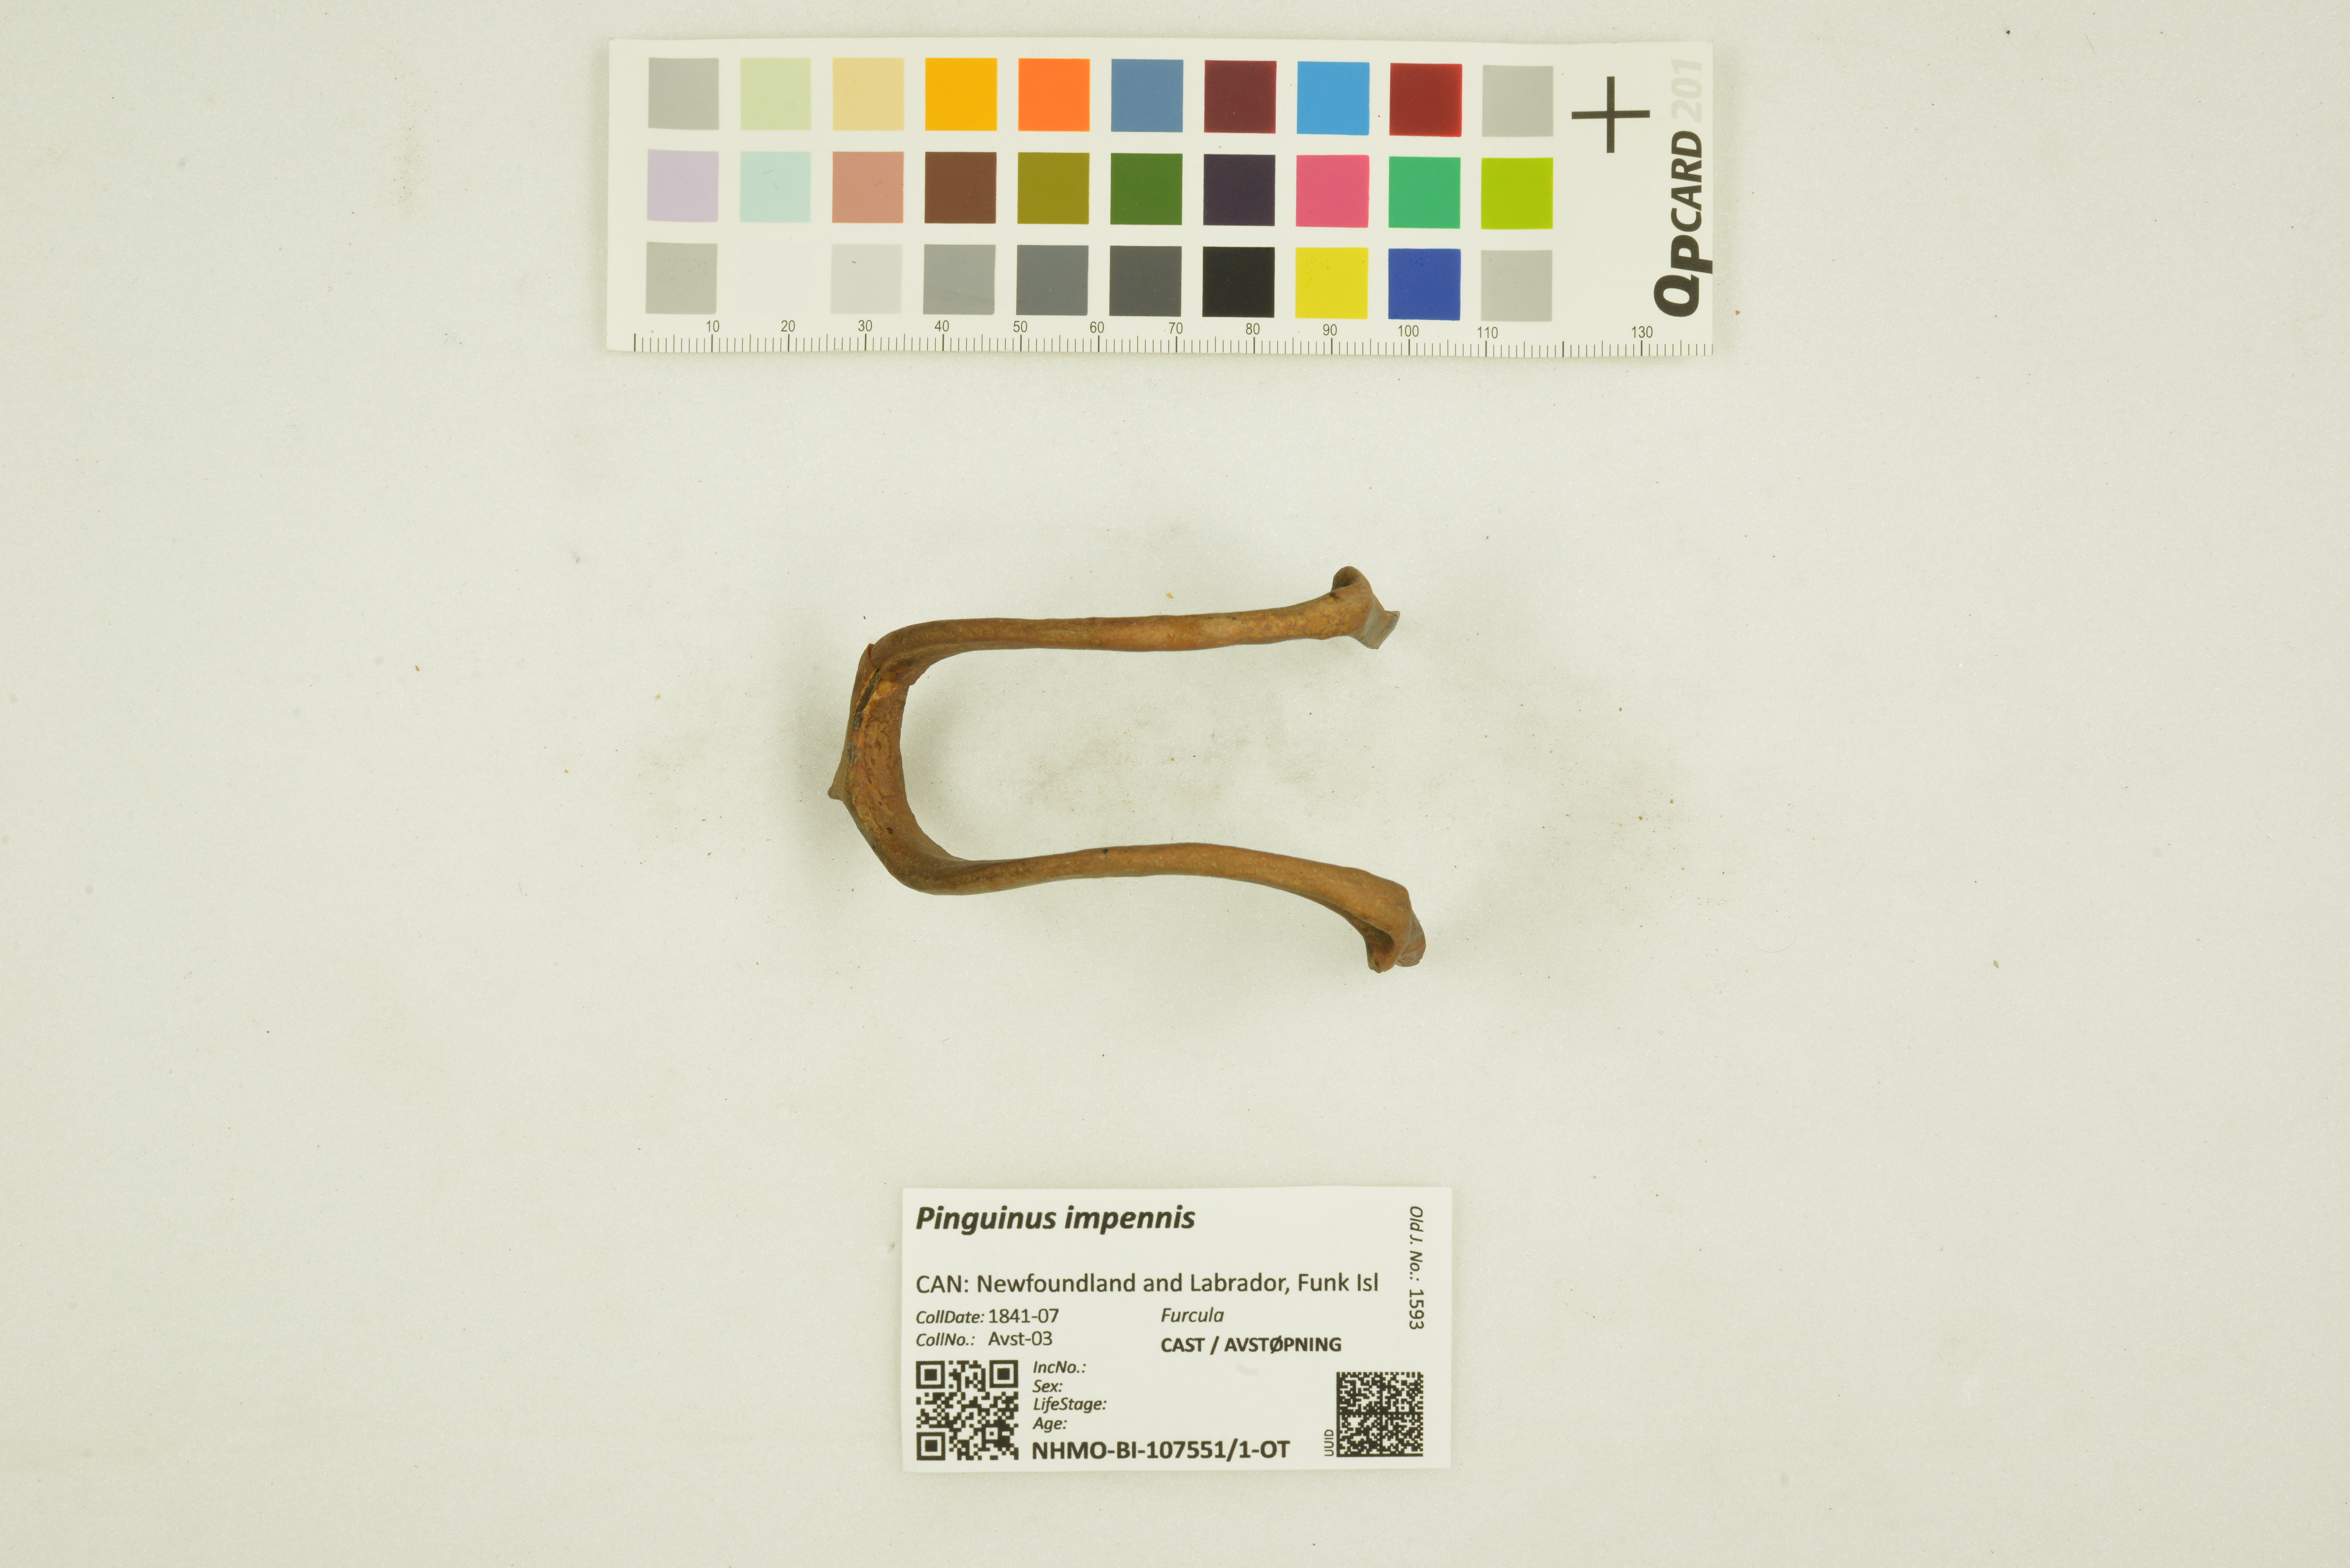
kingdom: Animalia
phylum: Chordata
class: Aves
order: Charadriiformes
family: Alcidae
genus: Pinguinus
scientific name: Pinguinus impennis
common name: Great auk
